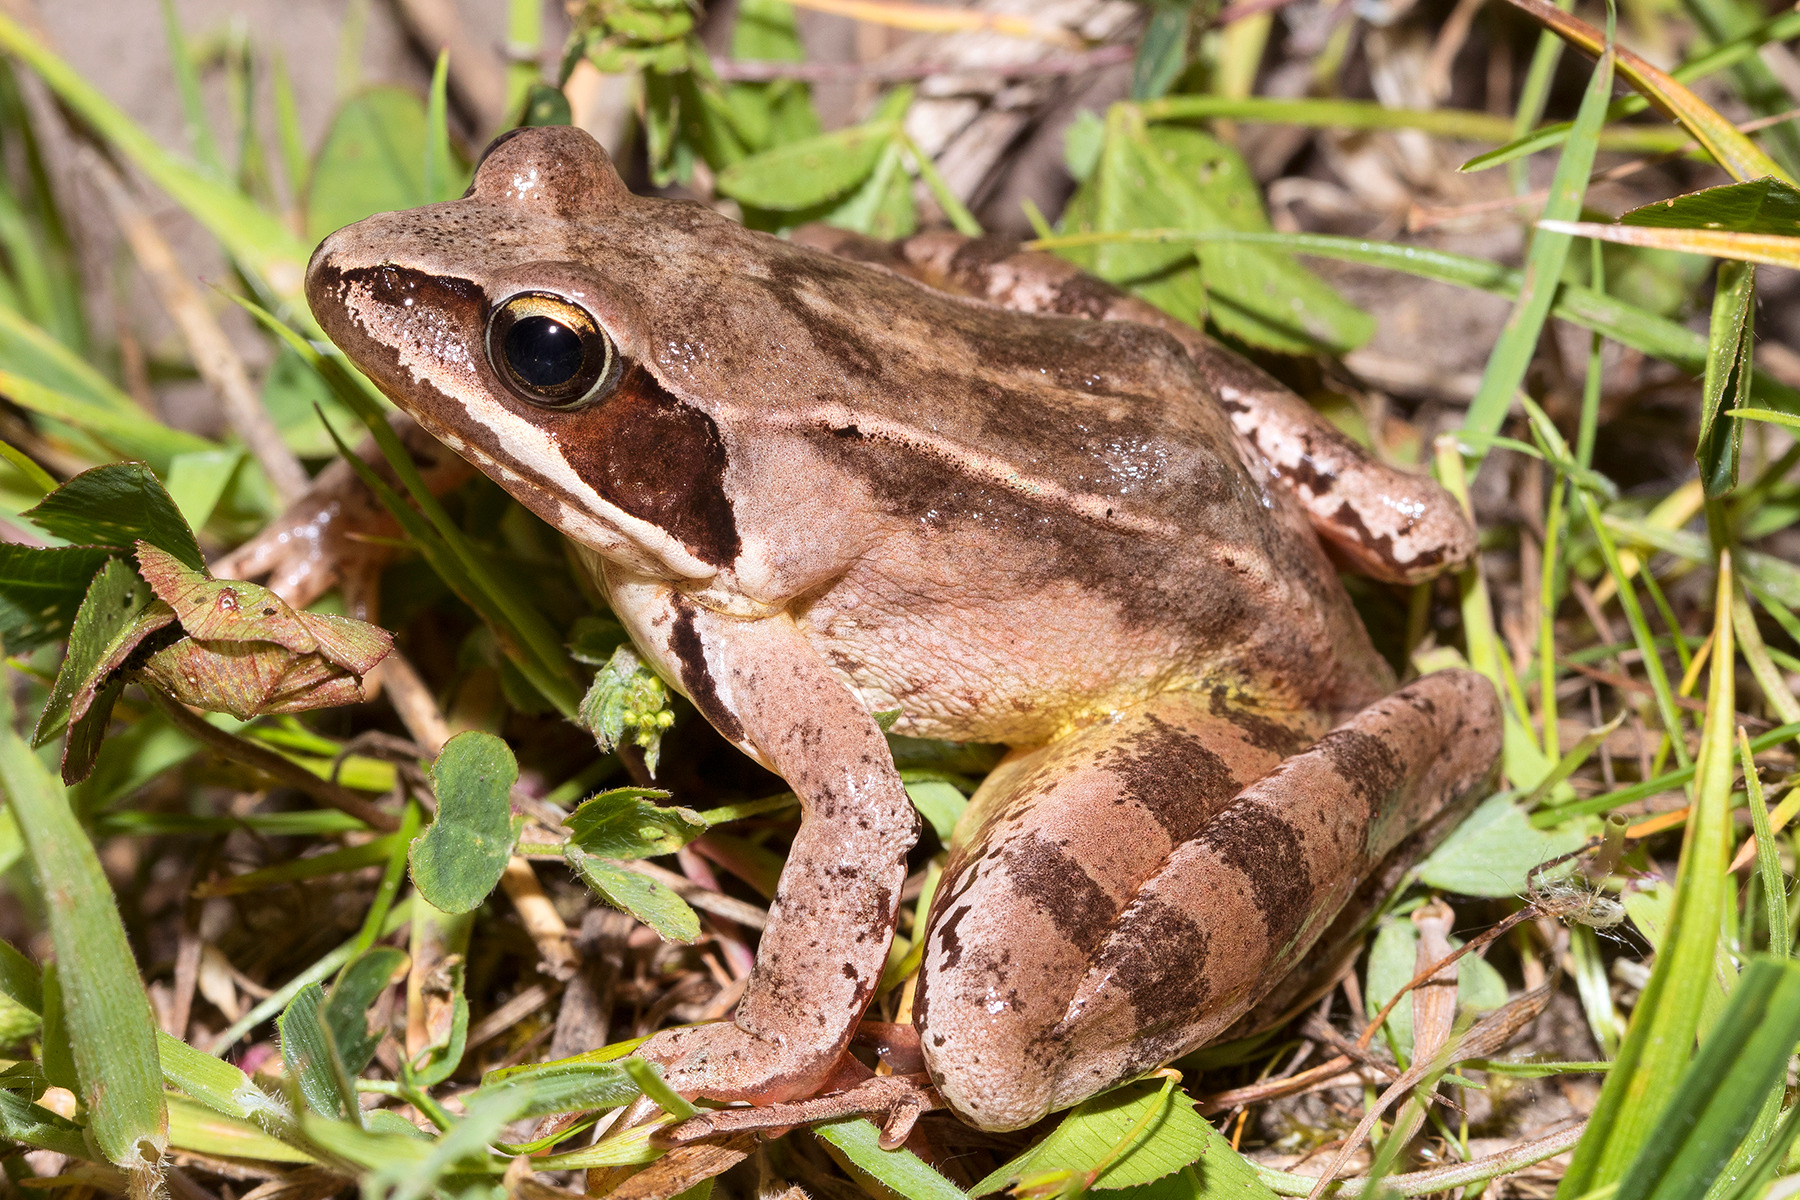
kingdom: Animalia
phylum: Chordata
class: Amphibia
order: Anura
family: Ranidae
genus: Rana
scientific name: Rana dalmatina
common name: Springfrø
